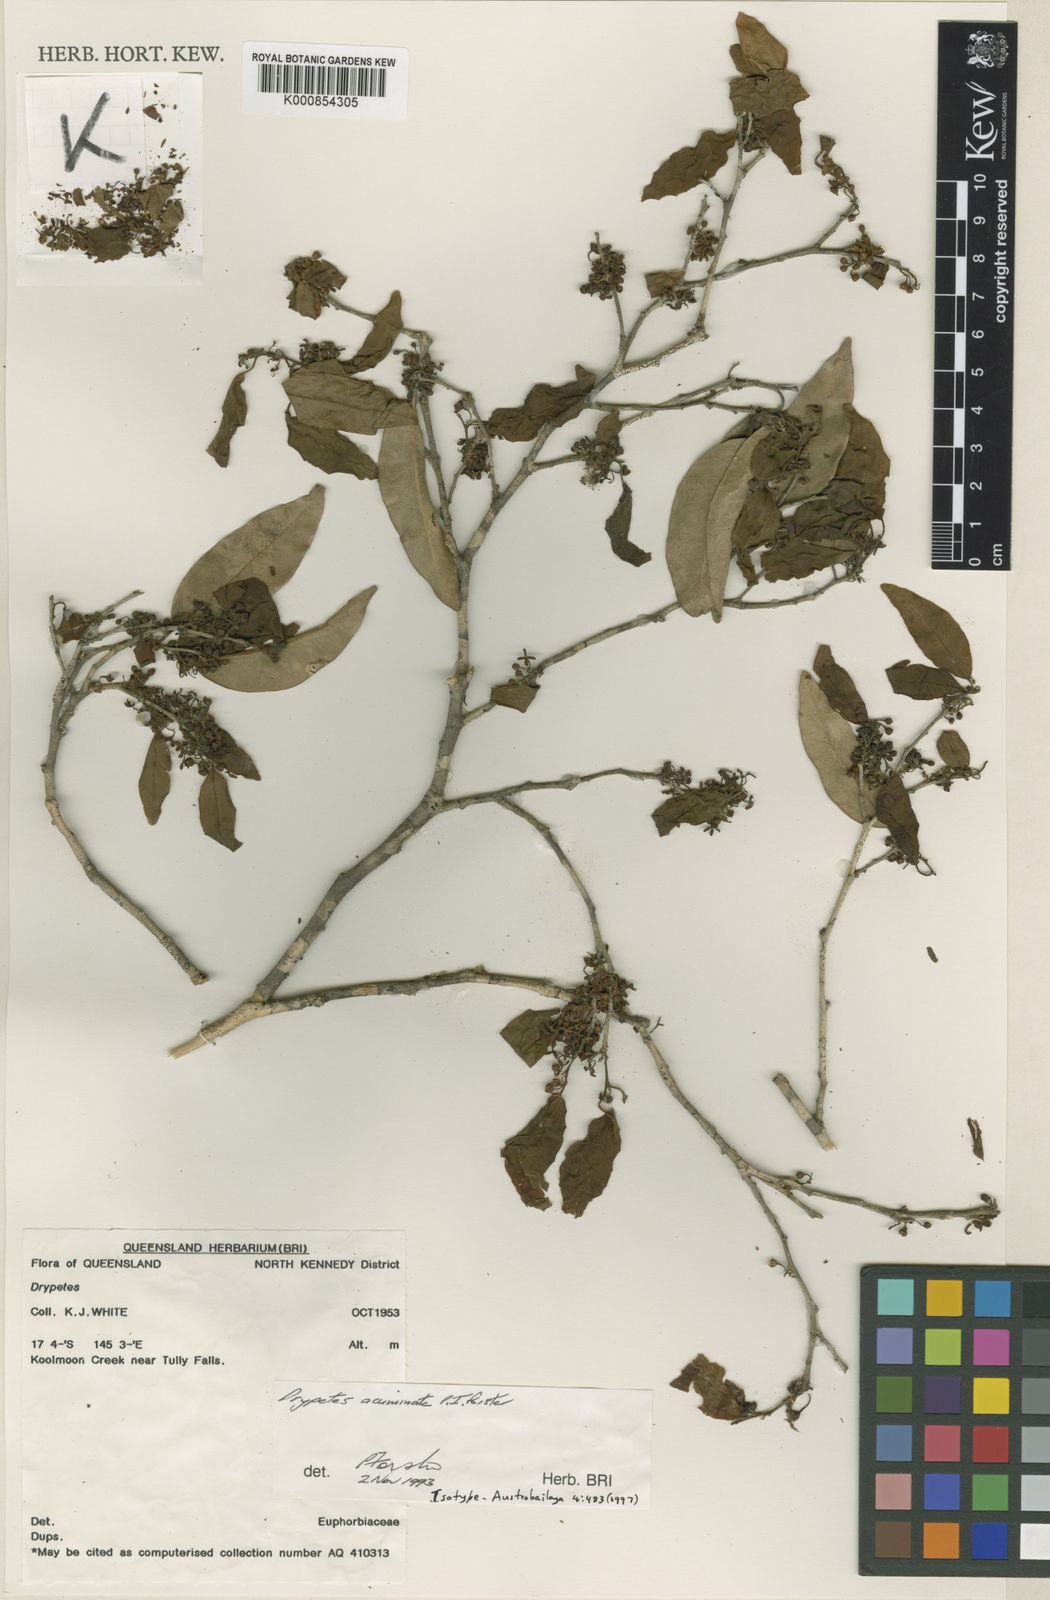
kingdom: Plantae
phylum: Tracheophyta
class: Magnoliopsida
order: Malpighiales
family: Putranjivaceae
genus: Drypetes
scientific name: Drypetes acuminata
